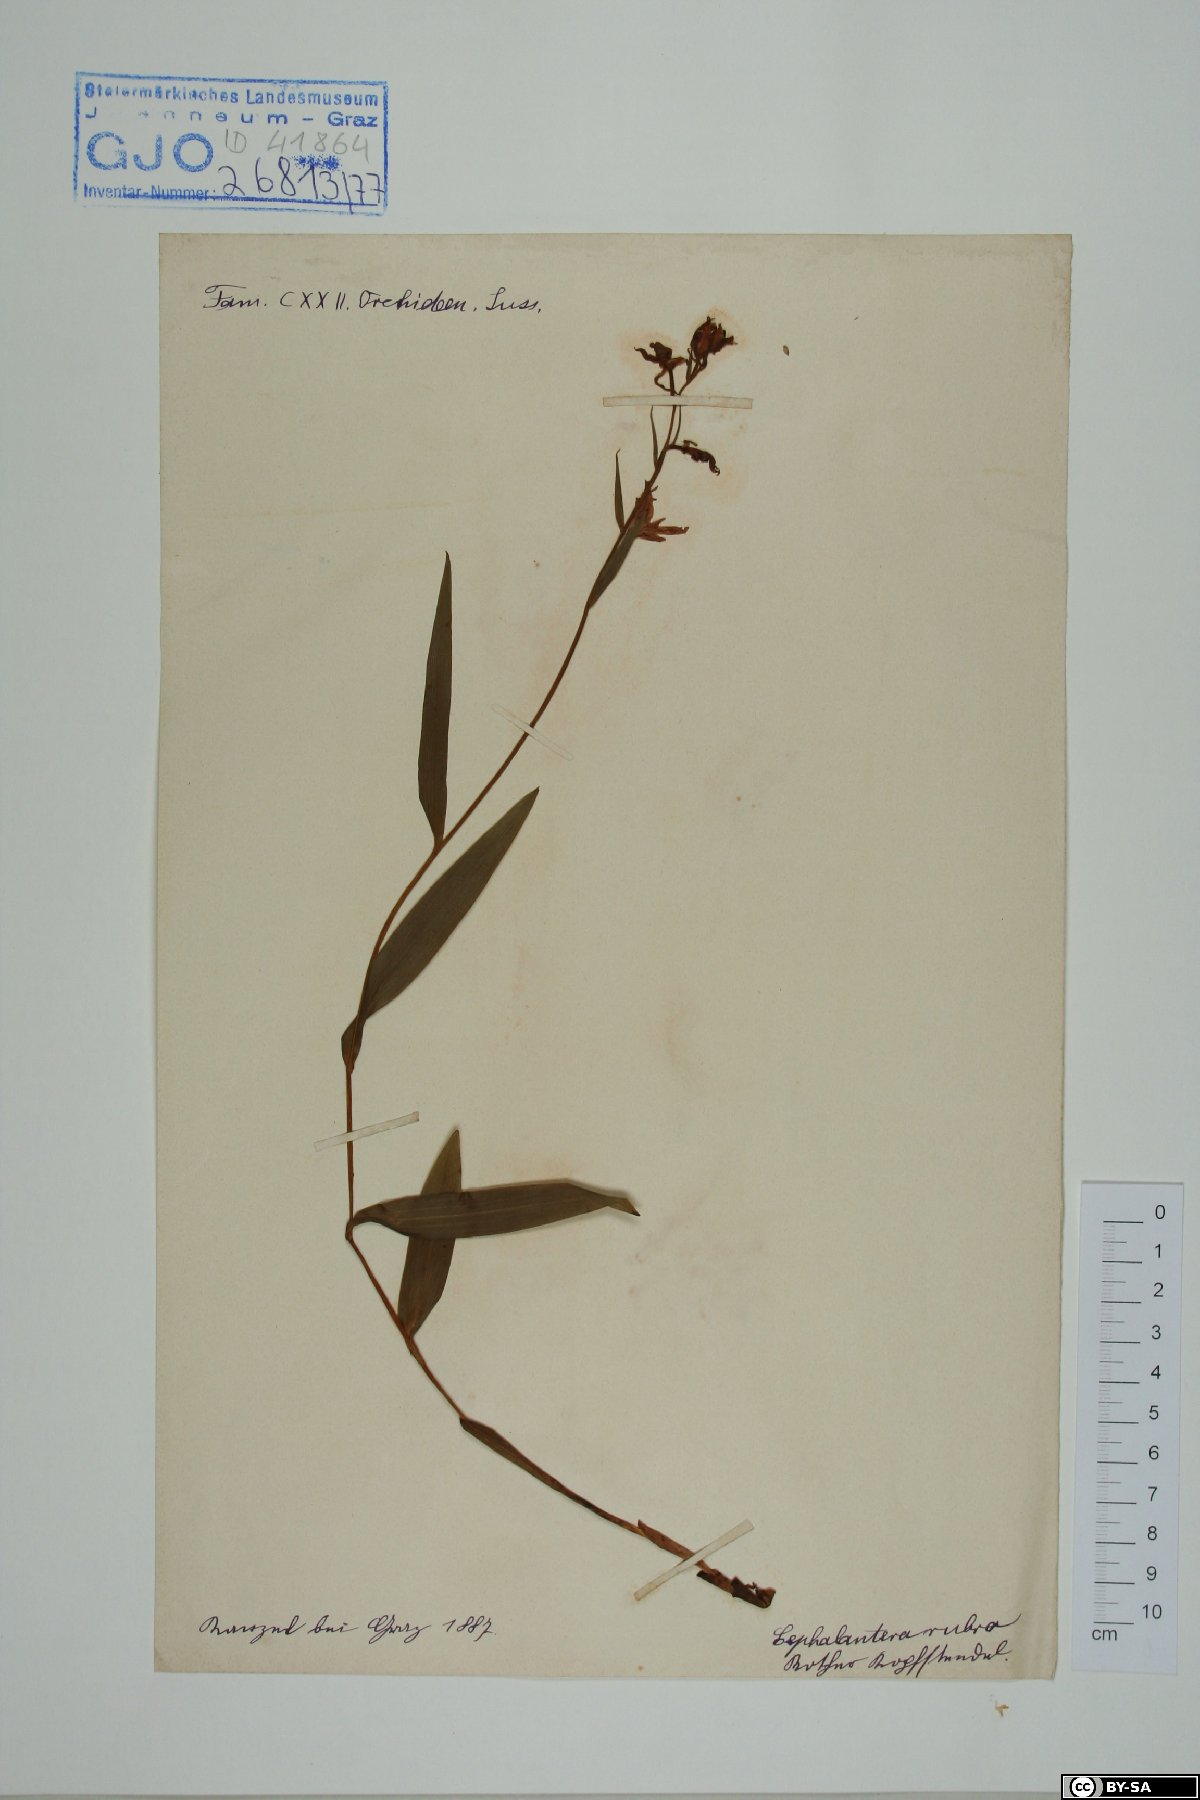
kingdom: Plantae
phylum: Tracheophyta
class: Liliopsida
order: Asparagales
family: Orchidaceae
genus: Cephalanthera
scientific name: Cephalanthera rubra
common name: Red helleborine
